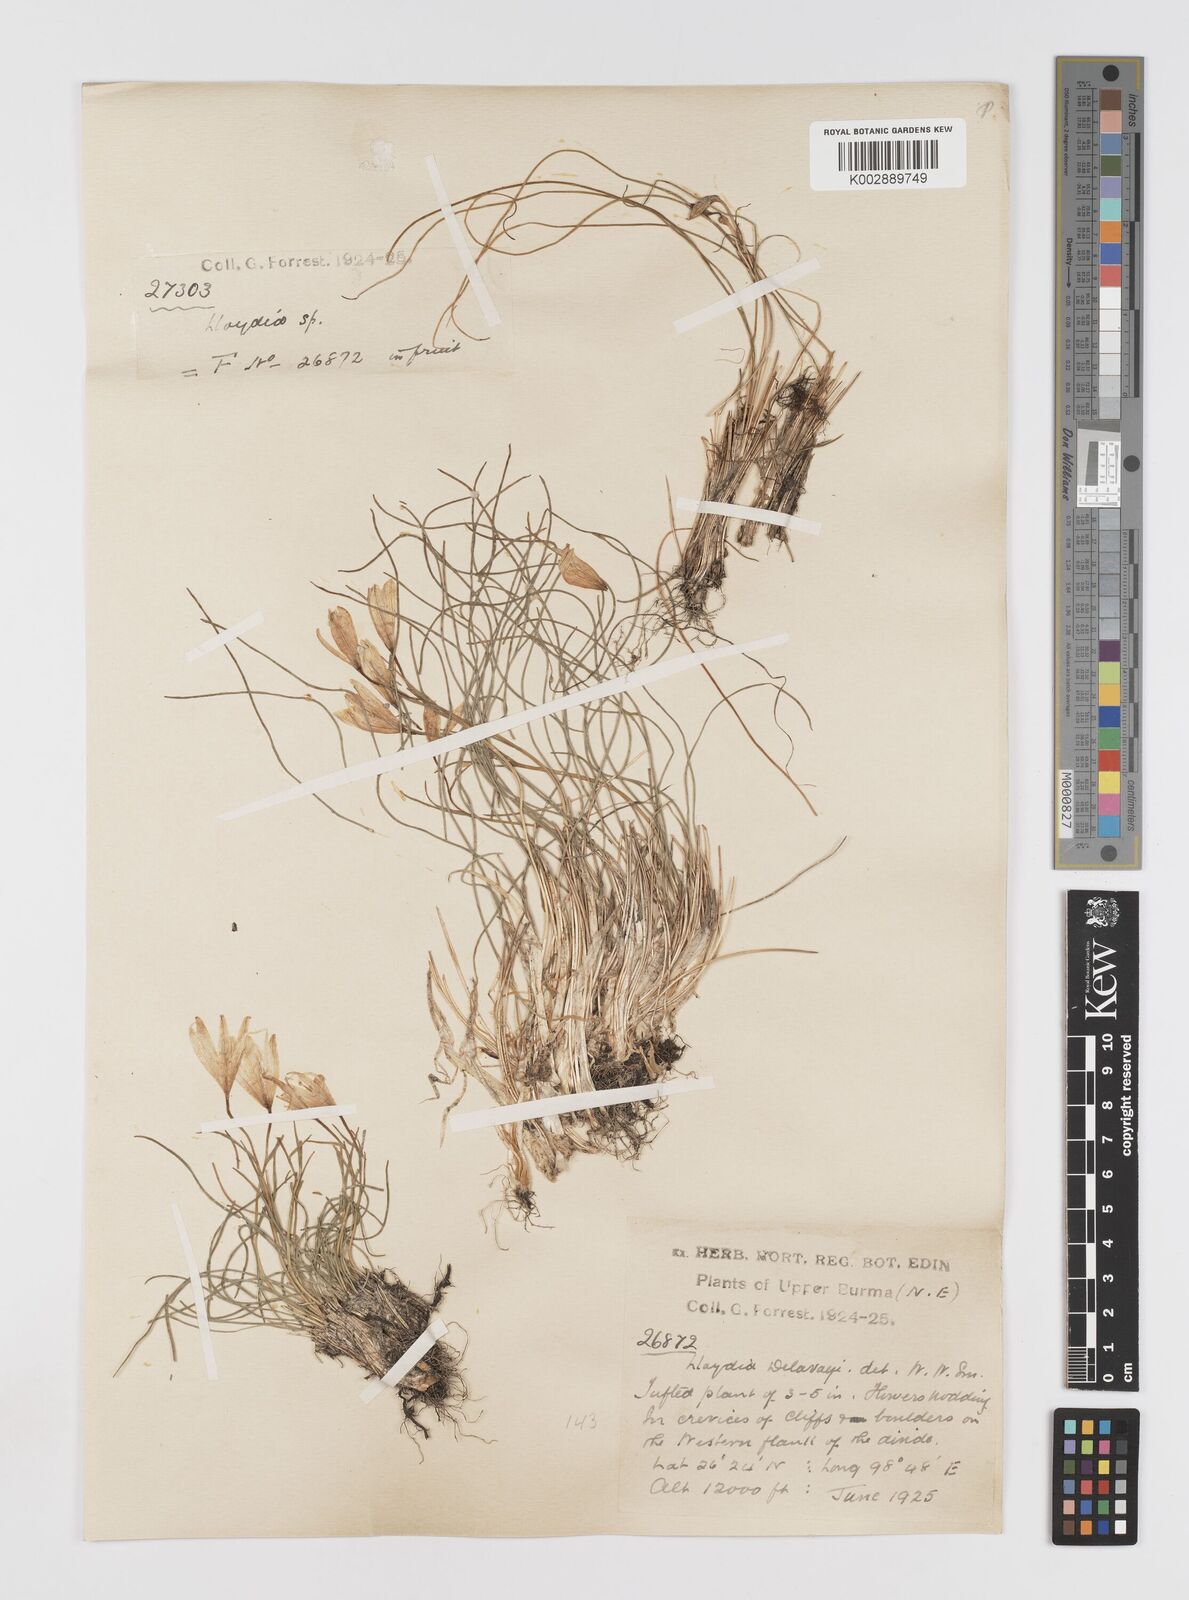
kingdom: Plantae
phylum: Tracheophyta
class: Liliopsida
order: Liliales
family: Liliaceae
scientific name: Liliaceae
